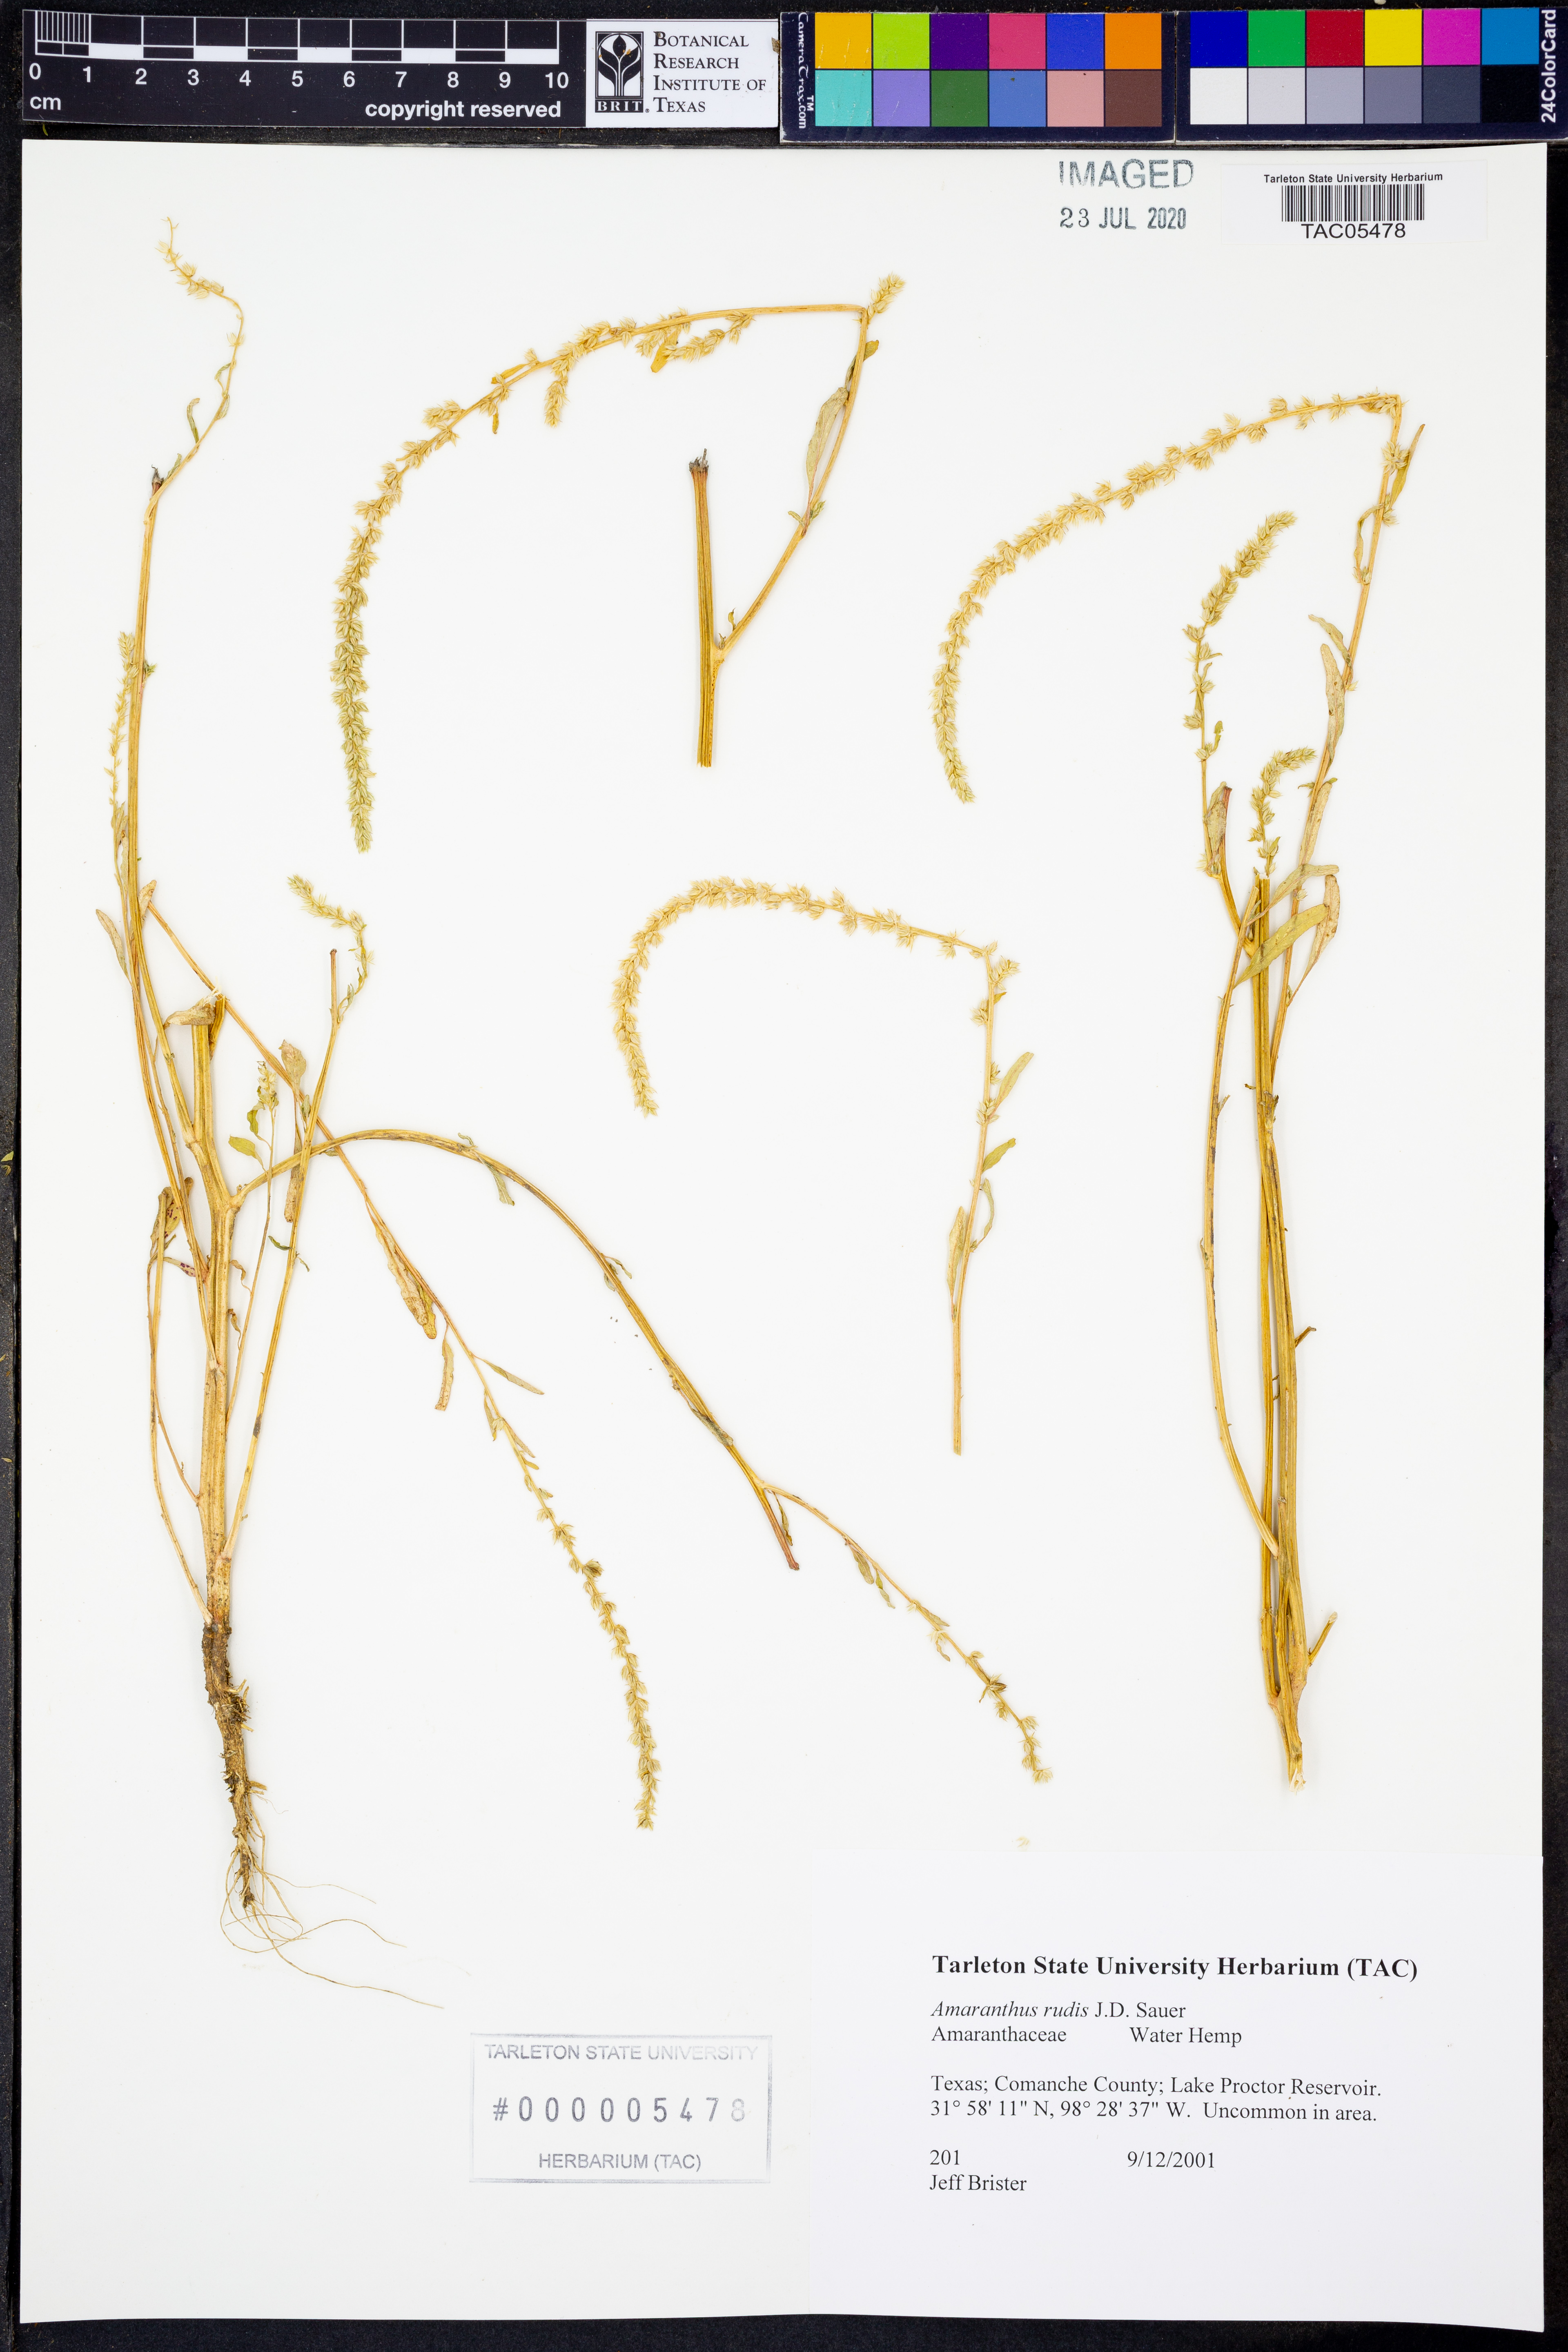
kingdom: Plantae
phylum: Tracheophyta
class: Magnoliopsida
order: Caryophyllales
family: Amaranthaceae
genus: Amaranthus
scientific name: Amaranthus tuberculatus
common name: Rough-fruit amaranth
